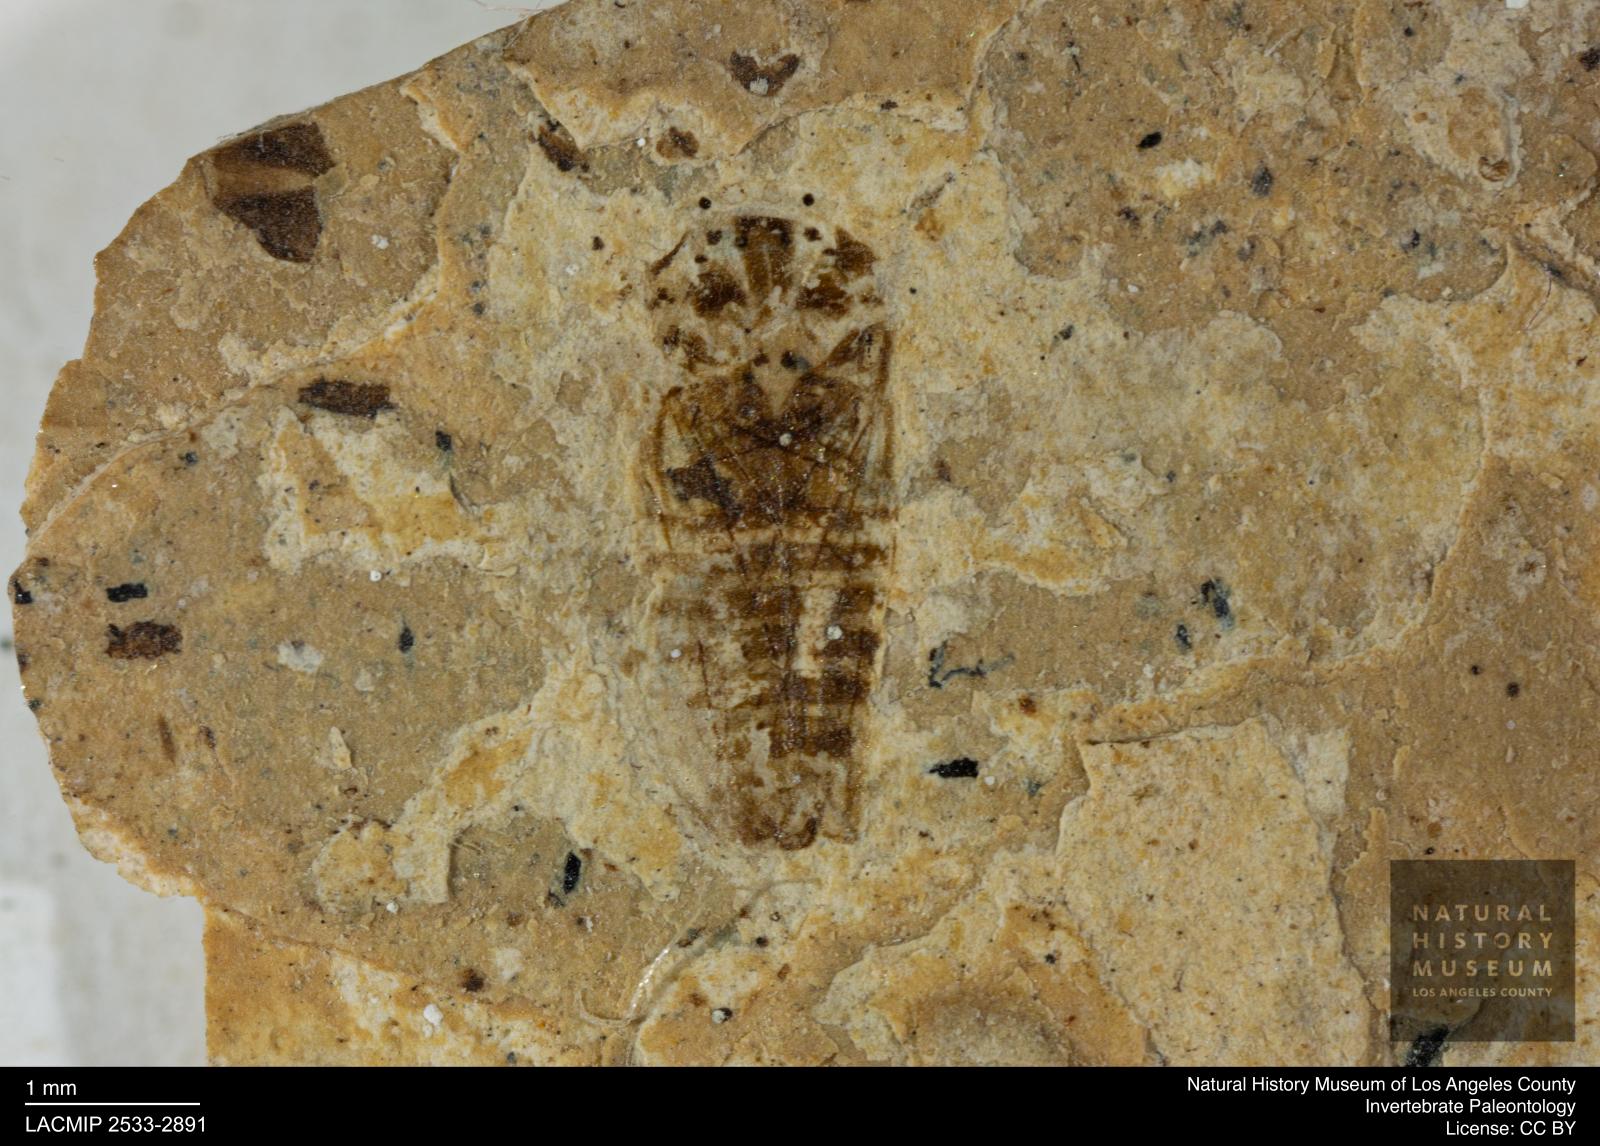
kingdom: Animalia
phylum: Arthropoda
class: Insecta
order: Hemiptera
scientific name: Hemiptera
